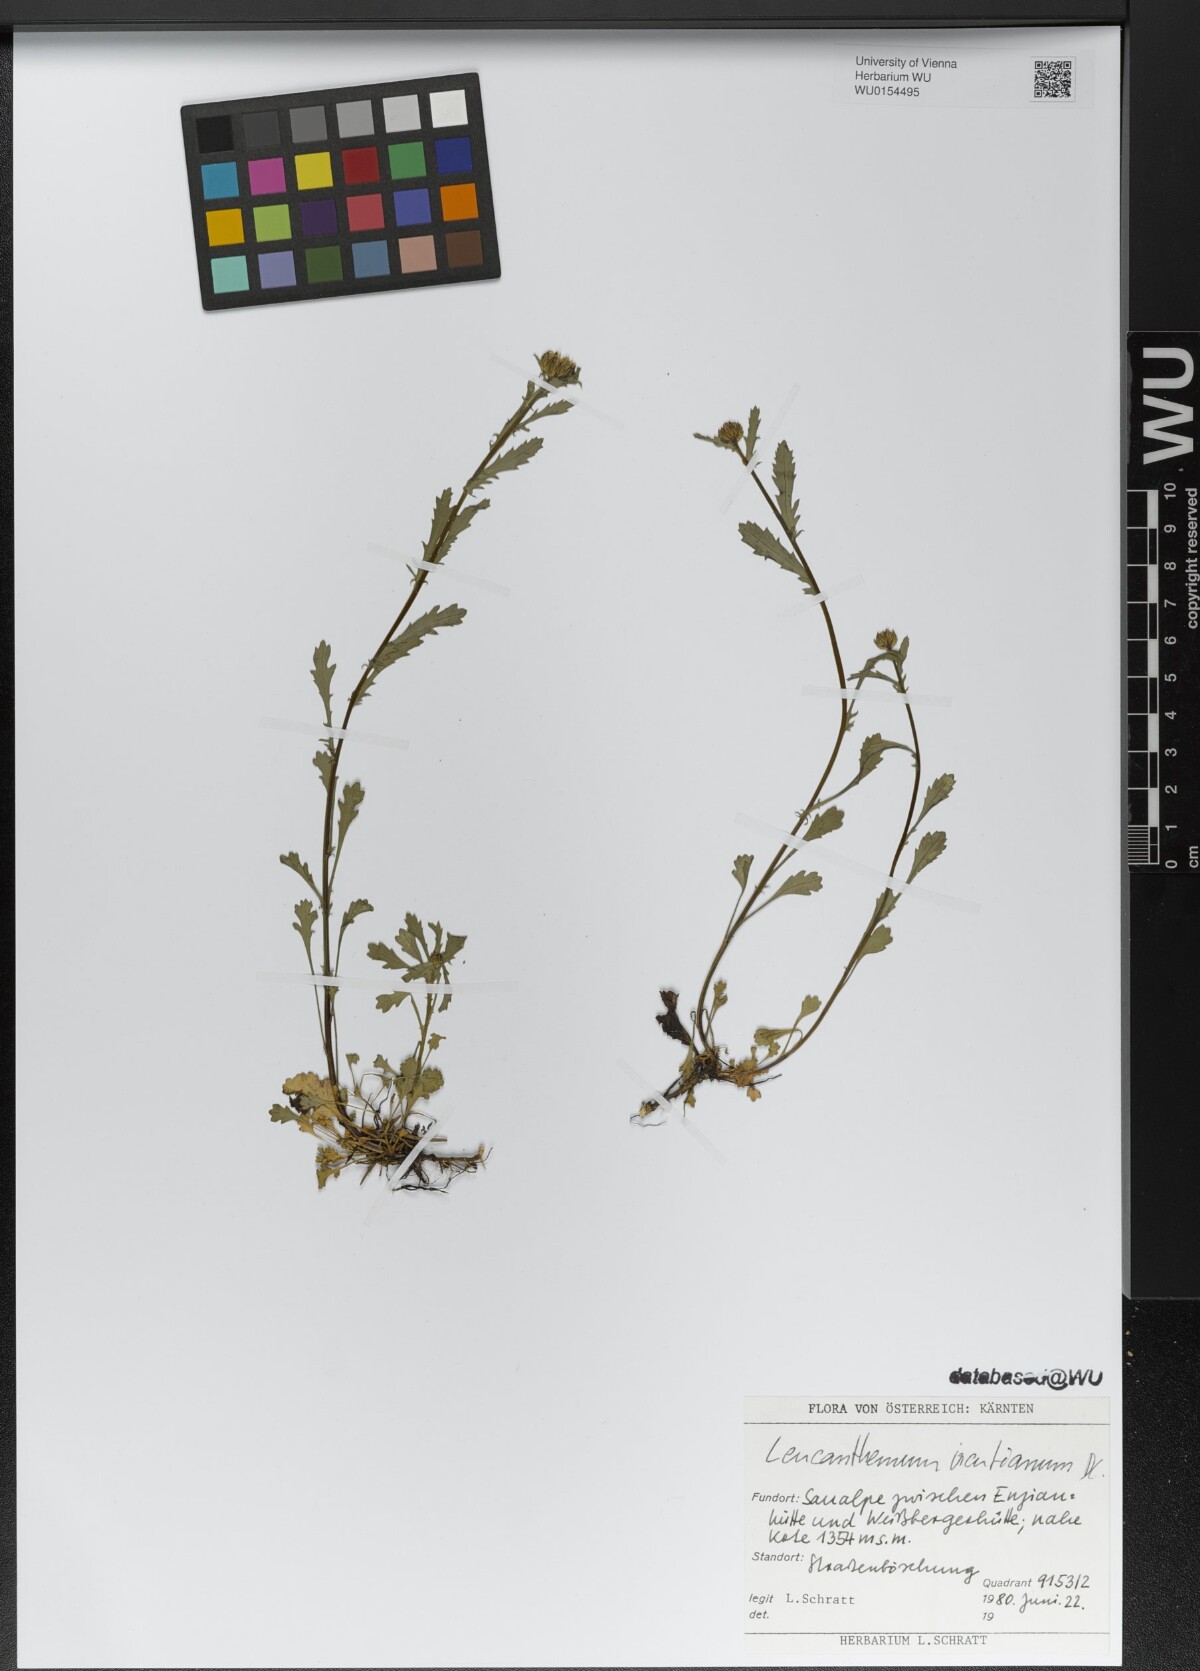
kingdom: Plantae
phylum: Tracheophyta
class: Magnoliopsida
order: Asterales
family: Asteraceae
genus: Leucanthemum
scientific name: Leucanthemum ircutianum
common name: Daisy
